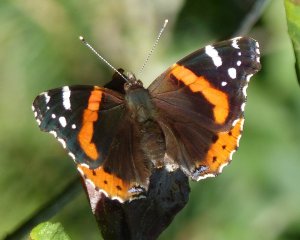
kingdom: Animalia
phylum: Arthropoda
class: Insecta
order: Lepidoptera
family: Nymphalidae
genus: Vanessa
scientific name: Vanessa atalanta
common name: Red Admiral
